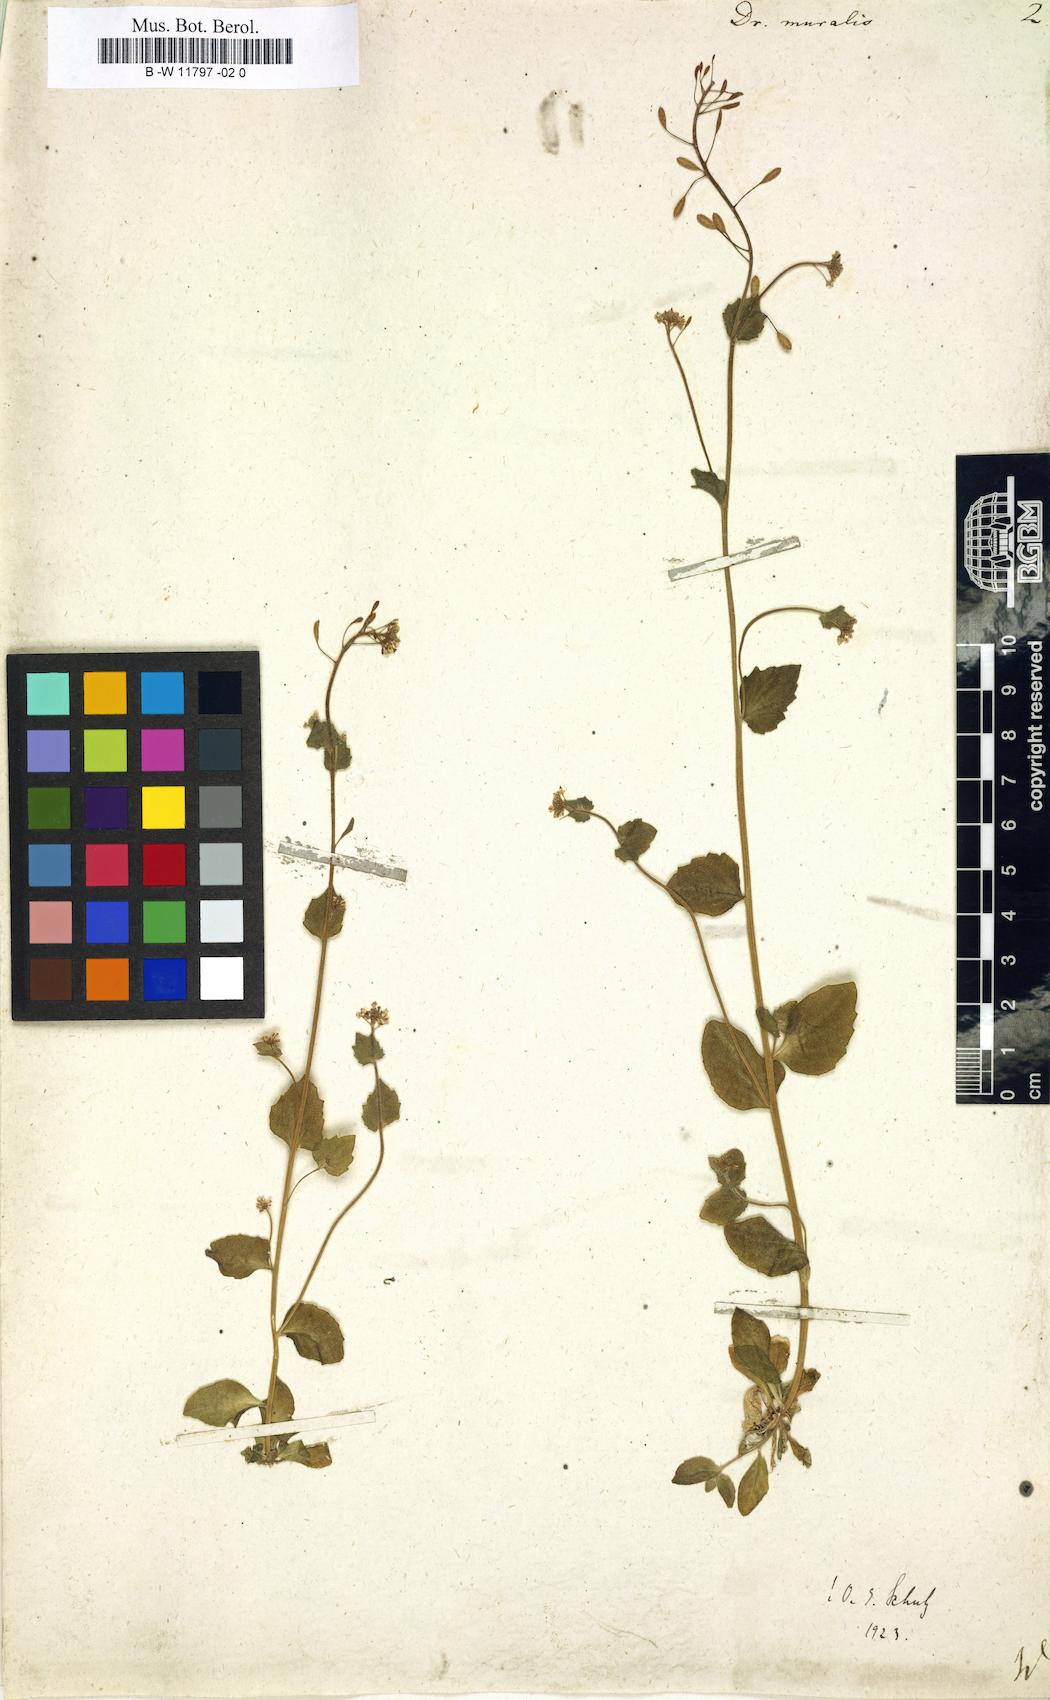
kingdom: Plantae
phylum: Tracheophyta
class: Magnoliopsida
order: Brassicales
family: Brassicaceae
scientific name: Brassicaceae
